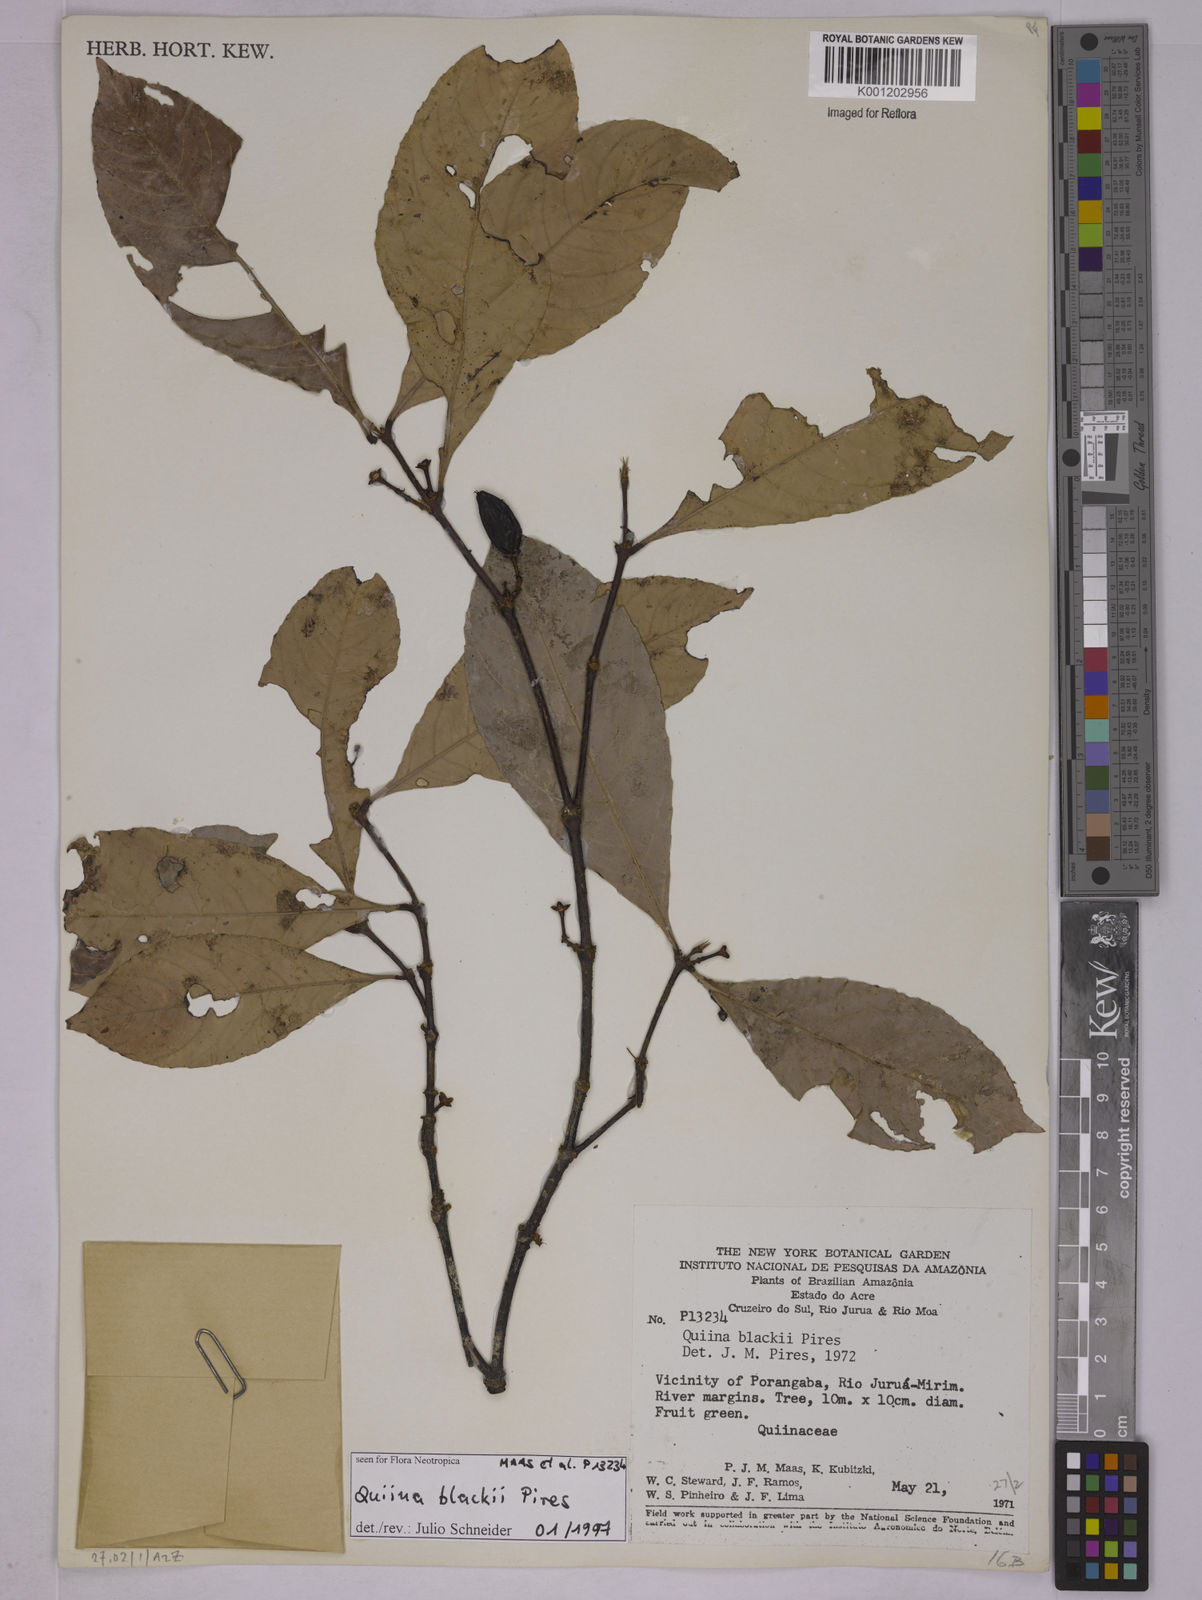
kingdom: Plantae
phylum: Tracheophyta
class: Magnoliopsida
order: Malpighiales
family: Quiinaceae
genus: Quiina
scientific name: Quiina blackii
